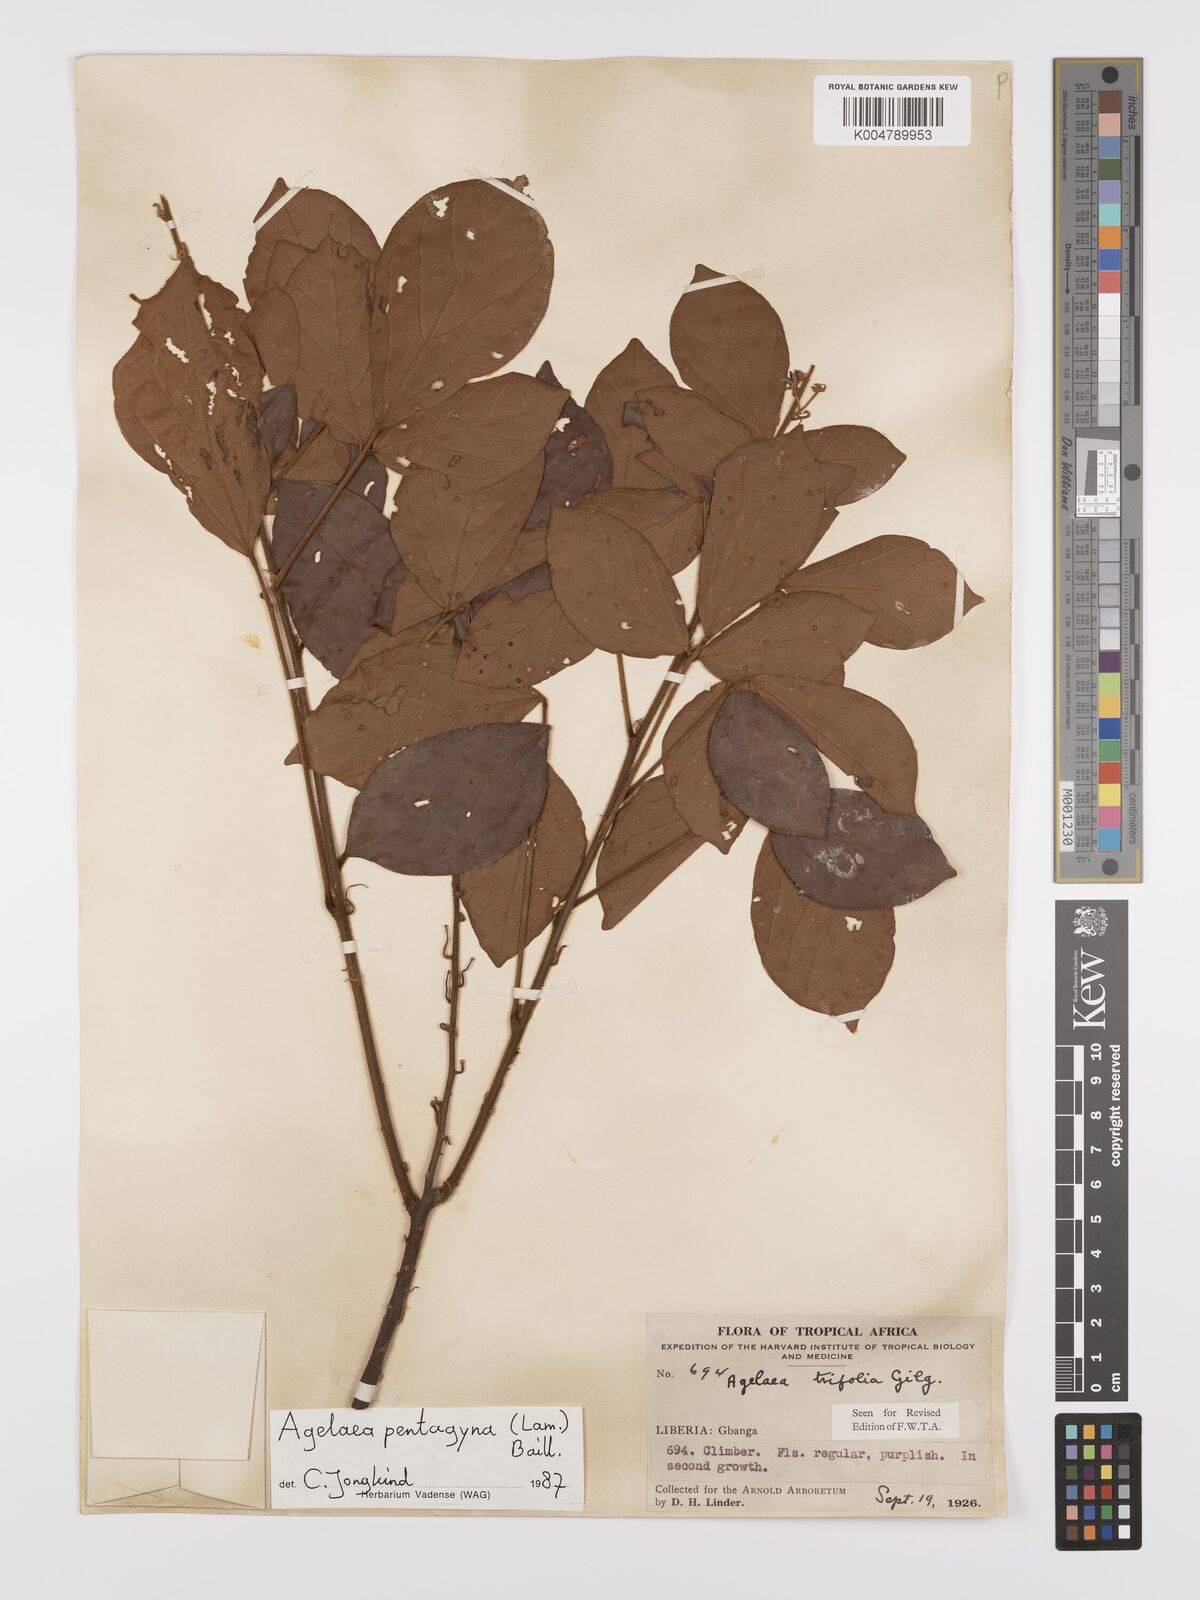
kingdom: Plantae
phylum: Tracheophyta
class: Magnoliopsida
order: Oxalidales
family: Connaraceae
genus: Agelaea
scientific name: Agelaea pentagyna
